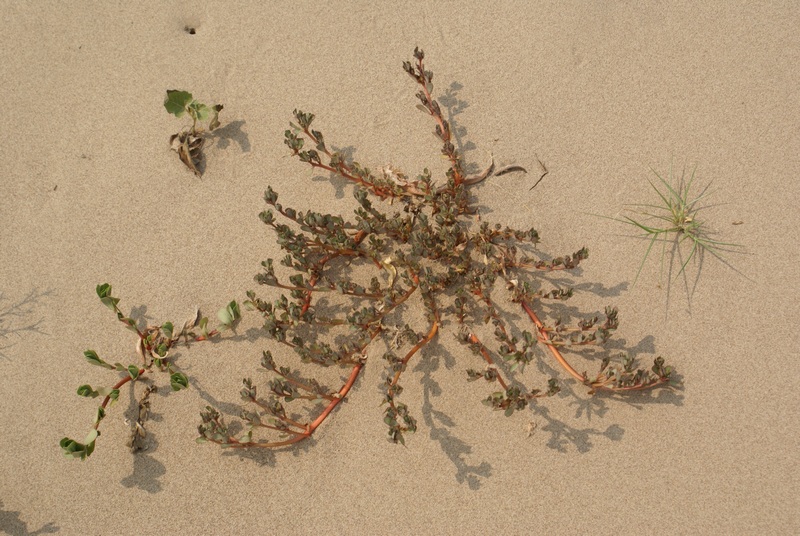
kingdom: Plantae
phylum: Tracheophyta
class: Magnoliopsida
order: Caryophyllales
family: Portulacaceae
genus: Portulaca
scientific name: Portulaca oleracea
